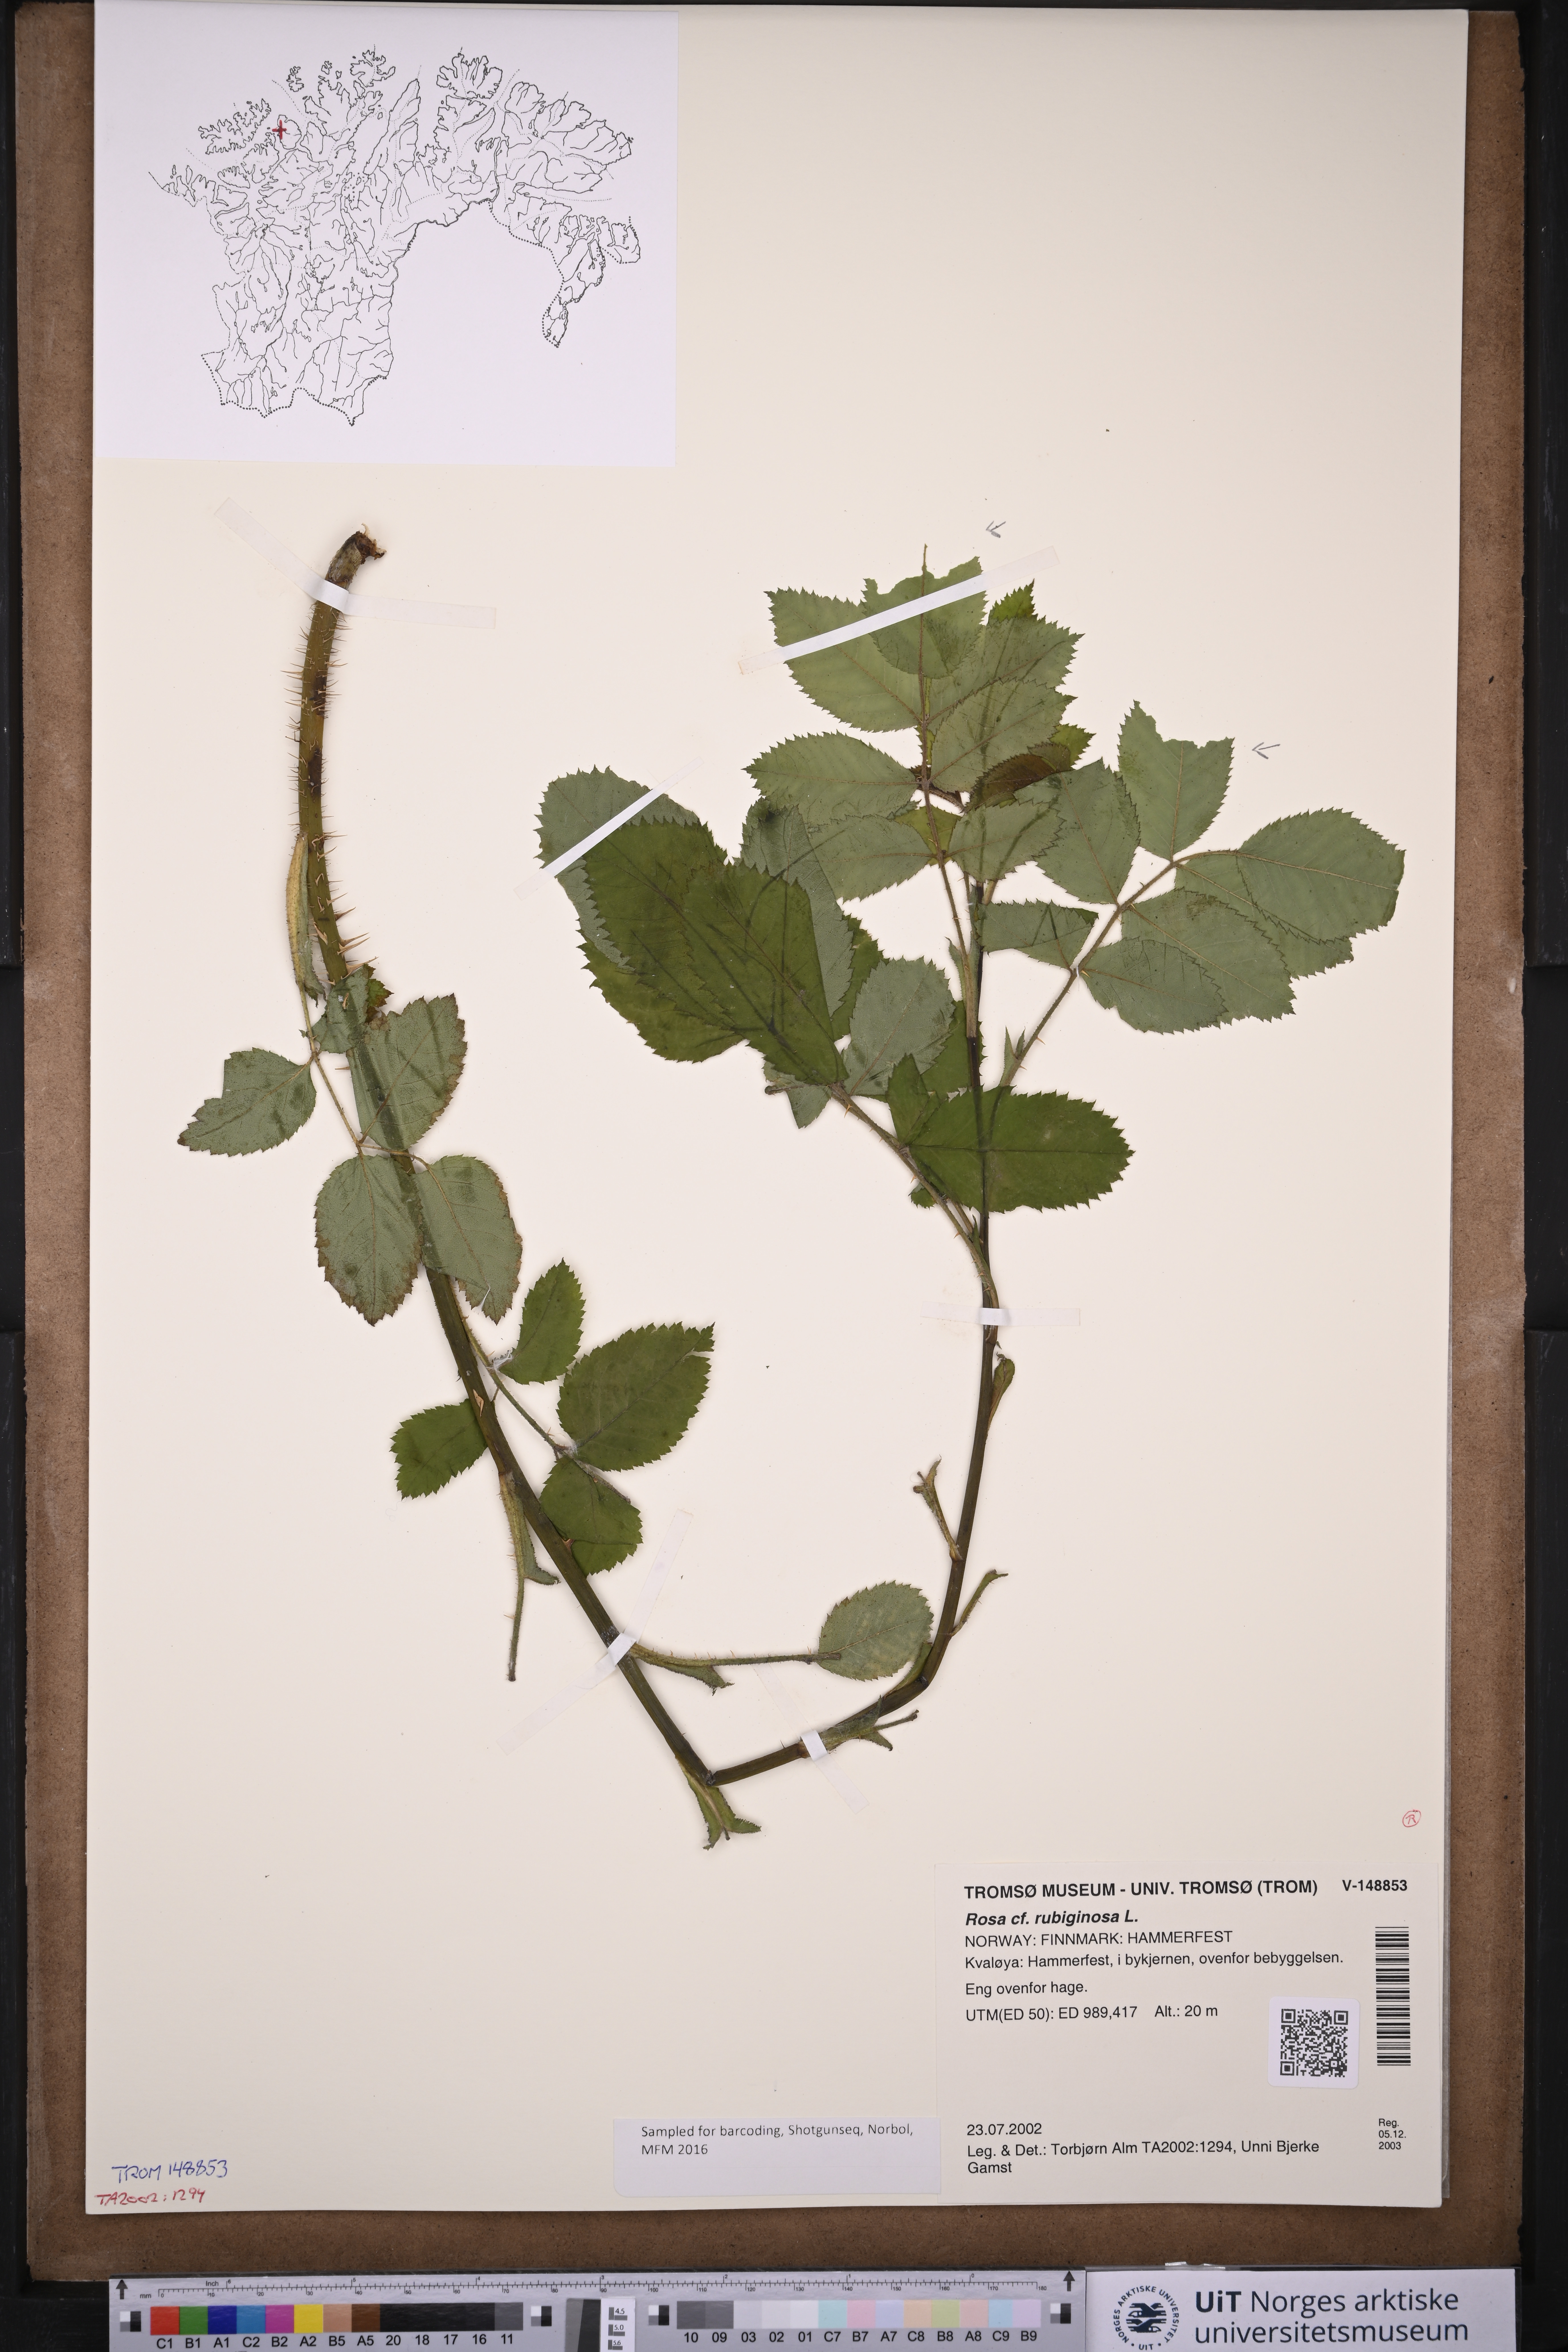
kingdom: Plantae
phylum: Tracheophyta
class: Magnoliopsida
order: Rosales
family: Rosaceae
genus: Rosa
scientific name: Rosa rubiginosa
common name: Sweet-briar
